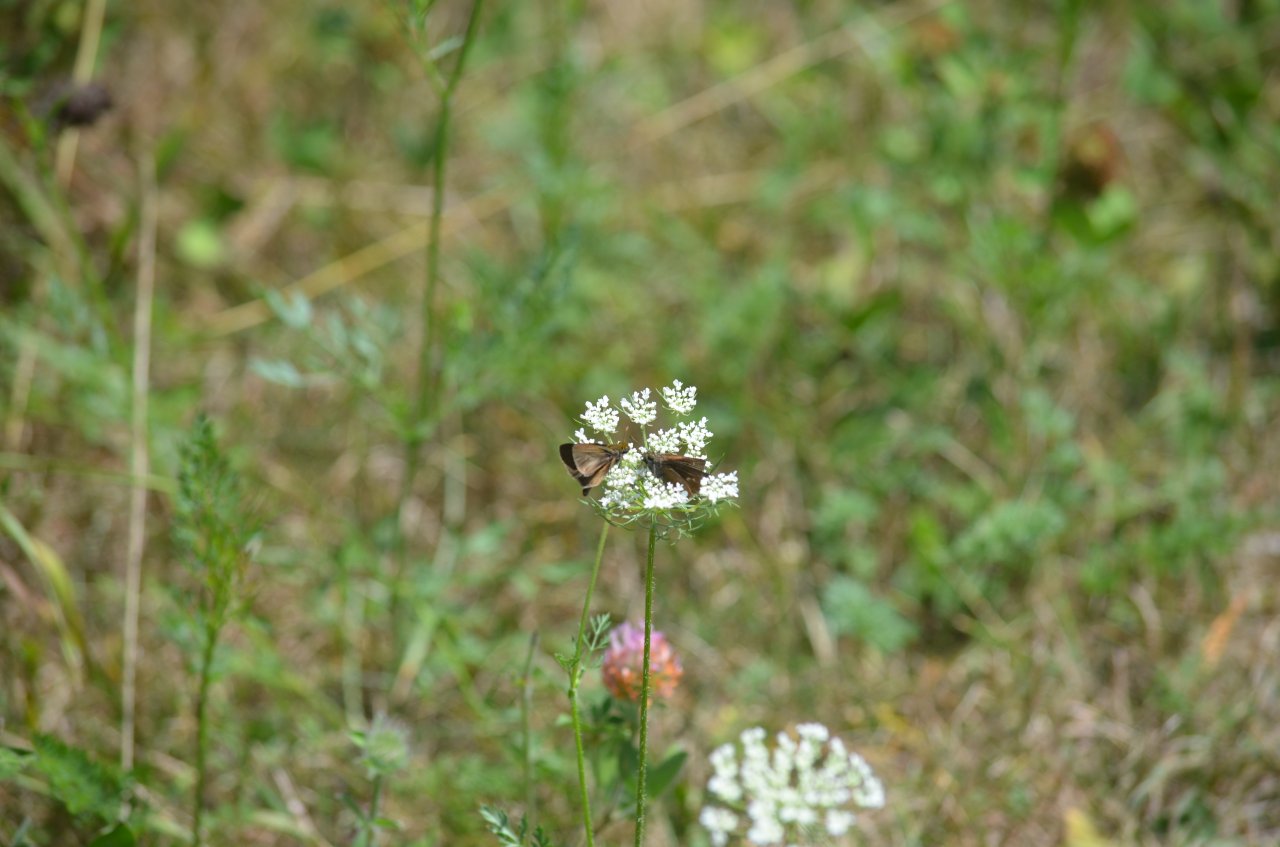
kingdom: Animalia
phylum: Arthropoda
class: Insecta
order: Lepidoptera
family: Hesperiidae
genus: Polites
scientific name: Polites themistocles
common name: Tawny-edged Skipper
